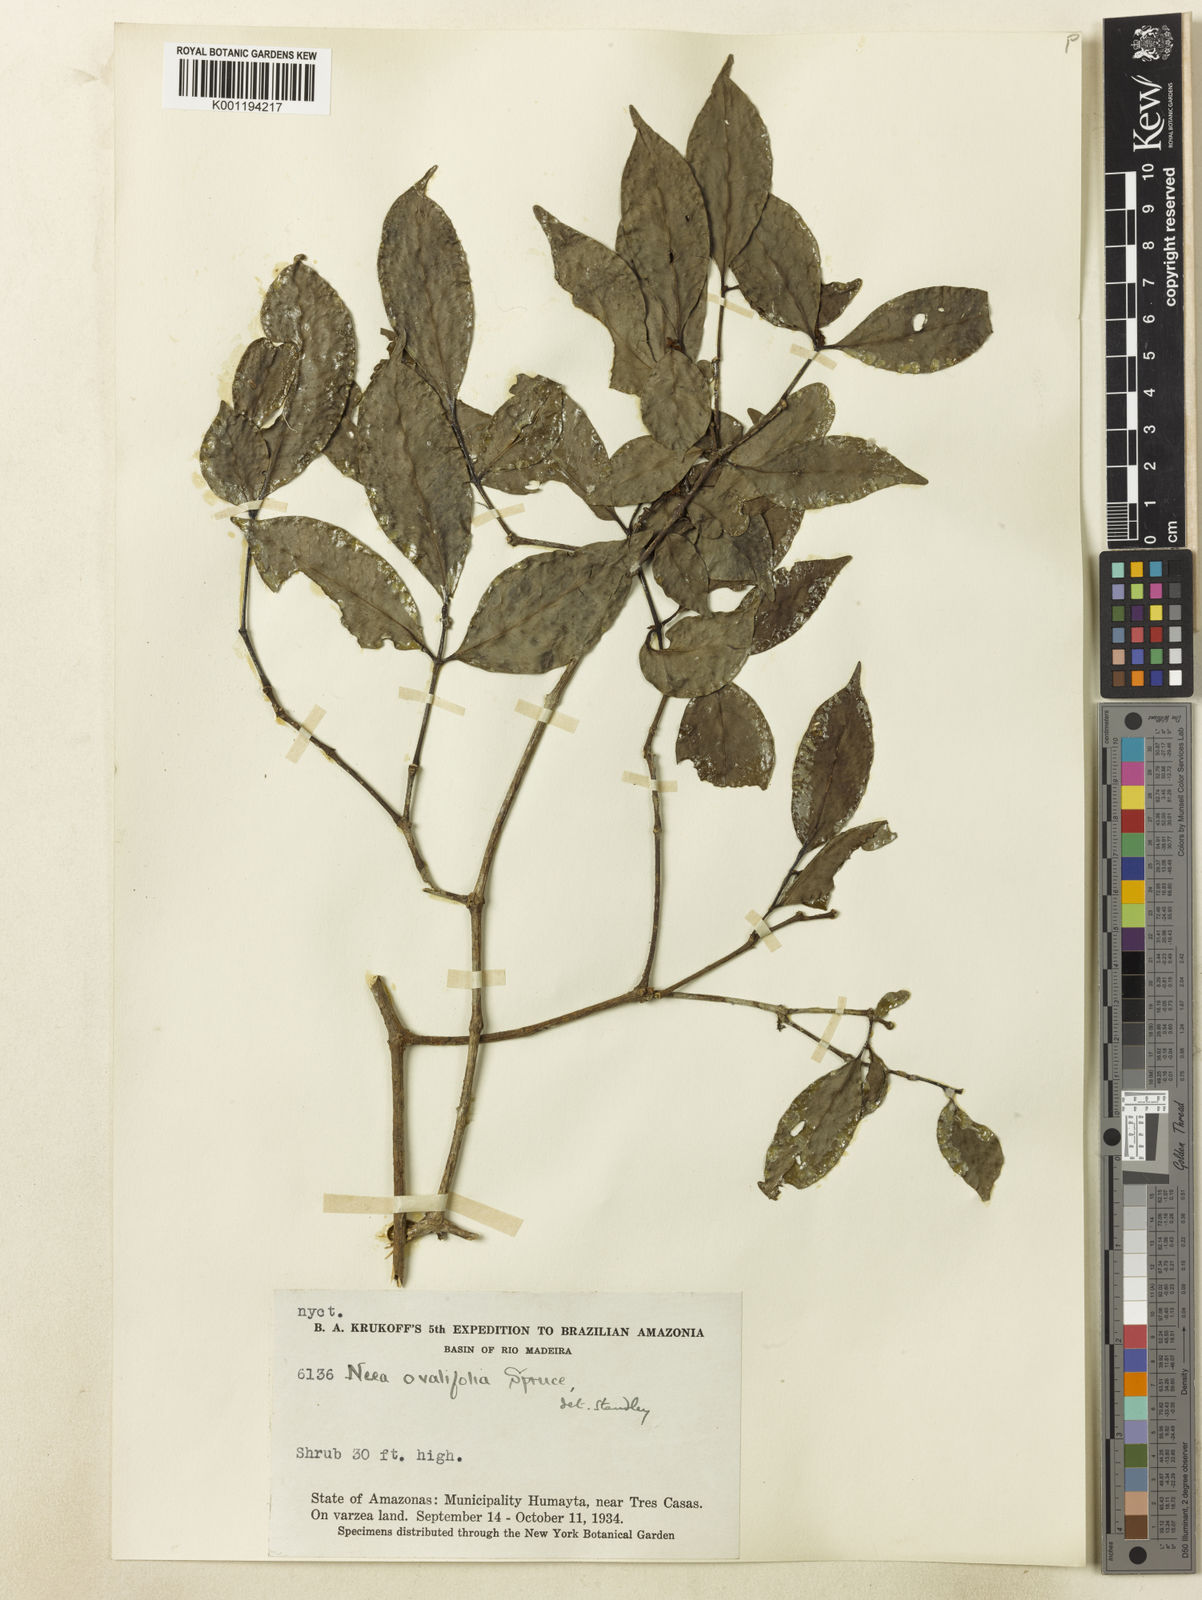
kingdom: Plantae
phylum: Tracheophyta
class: Magnoliopsida
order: Caryophyllales
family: Nyctaginaceae
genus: Neea
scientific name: Neea ovalifolia
